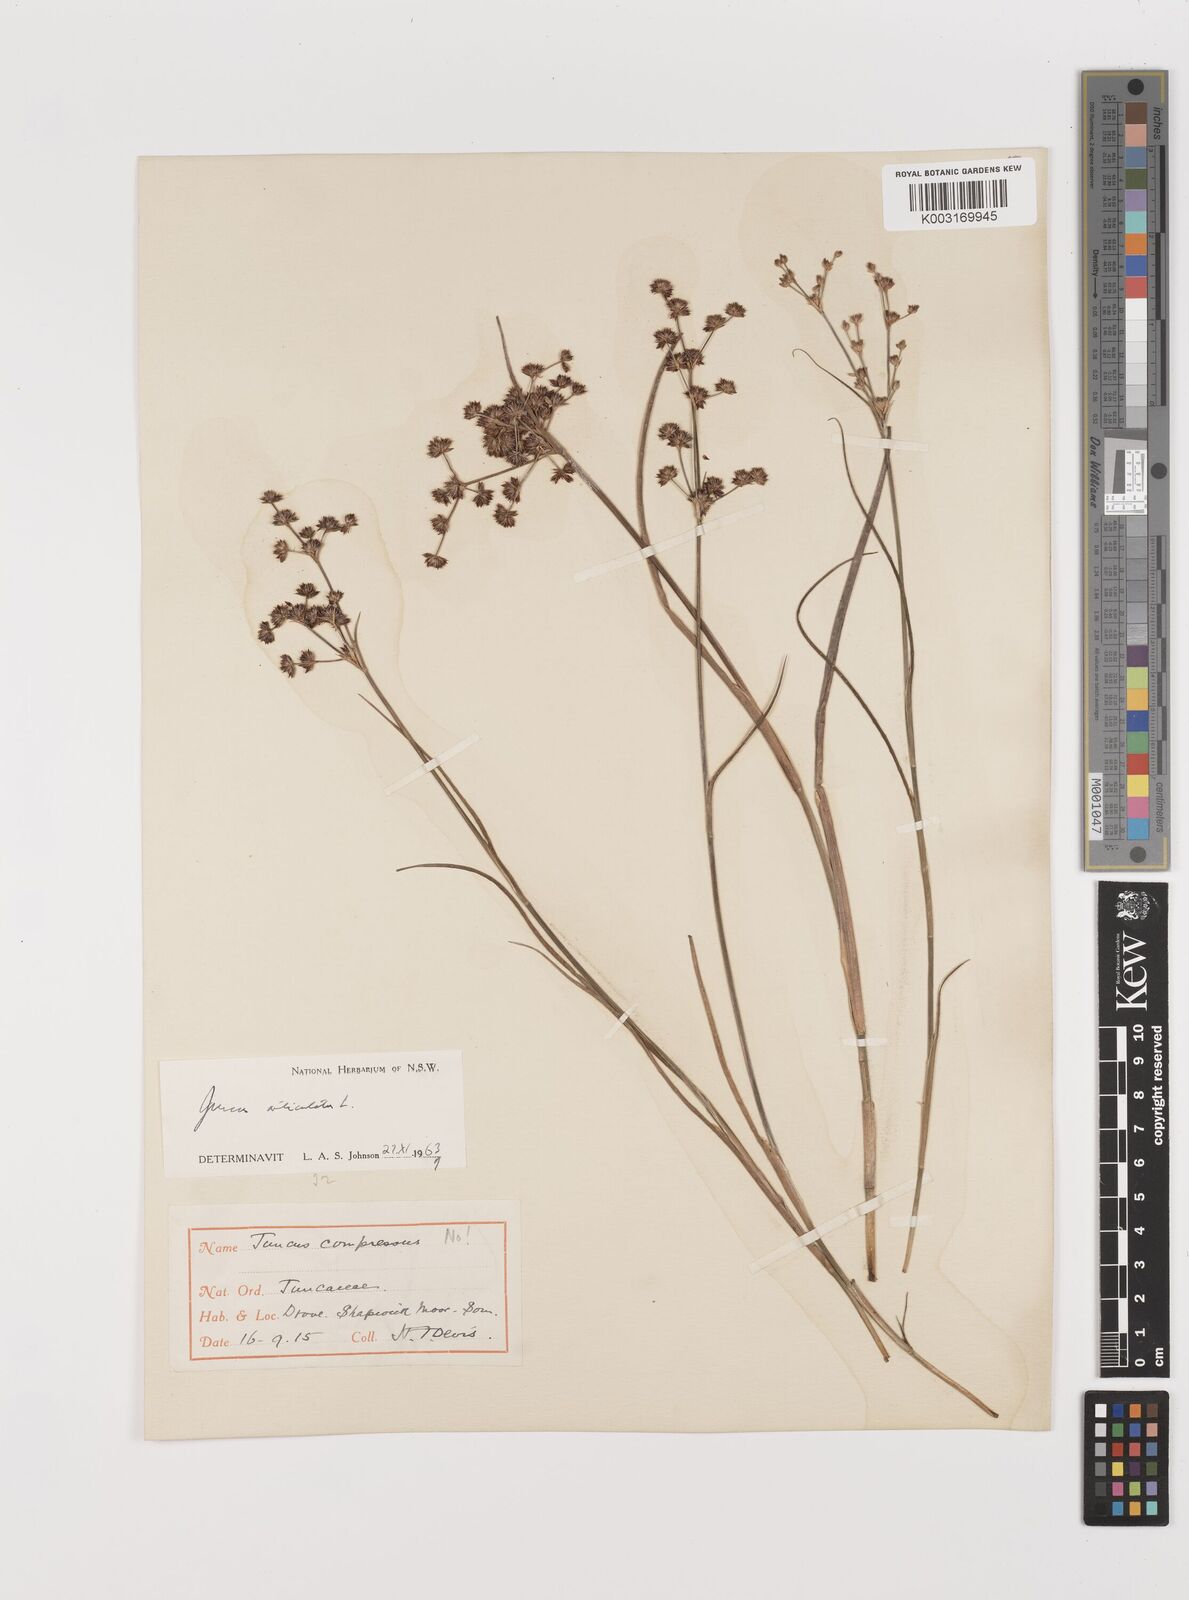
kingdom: Plantae
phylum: Tracheophyta
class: Liliopsida
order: Poales
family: Juncaceae
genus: Juncus
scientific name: Juncus articulatus
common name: Jointed rush
